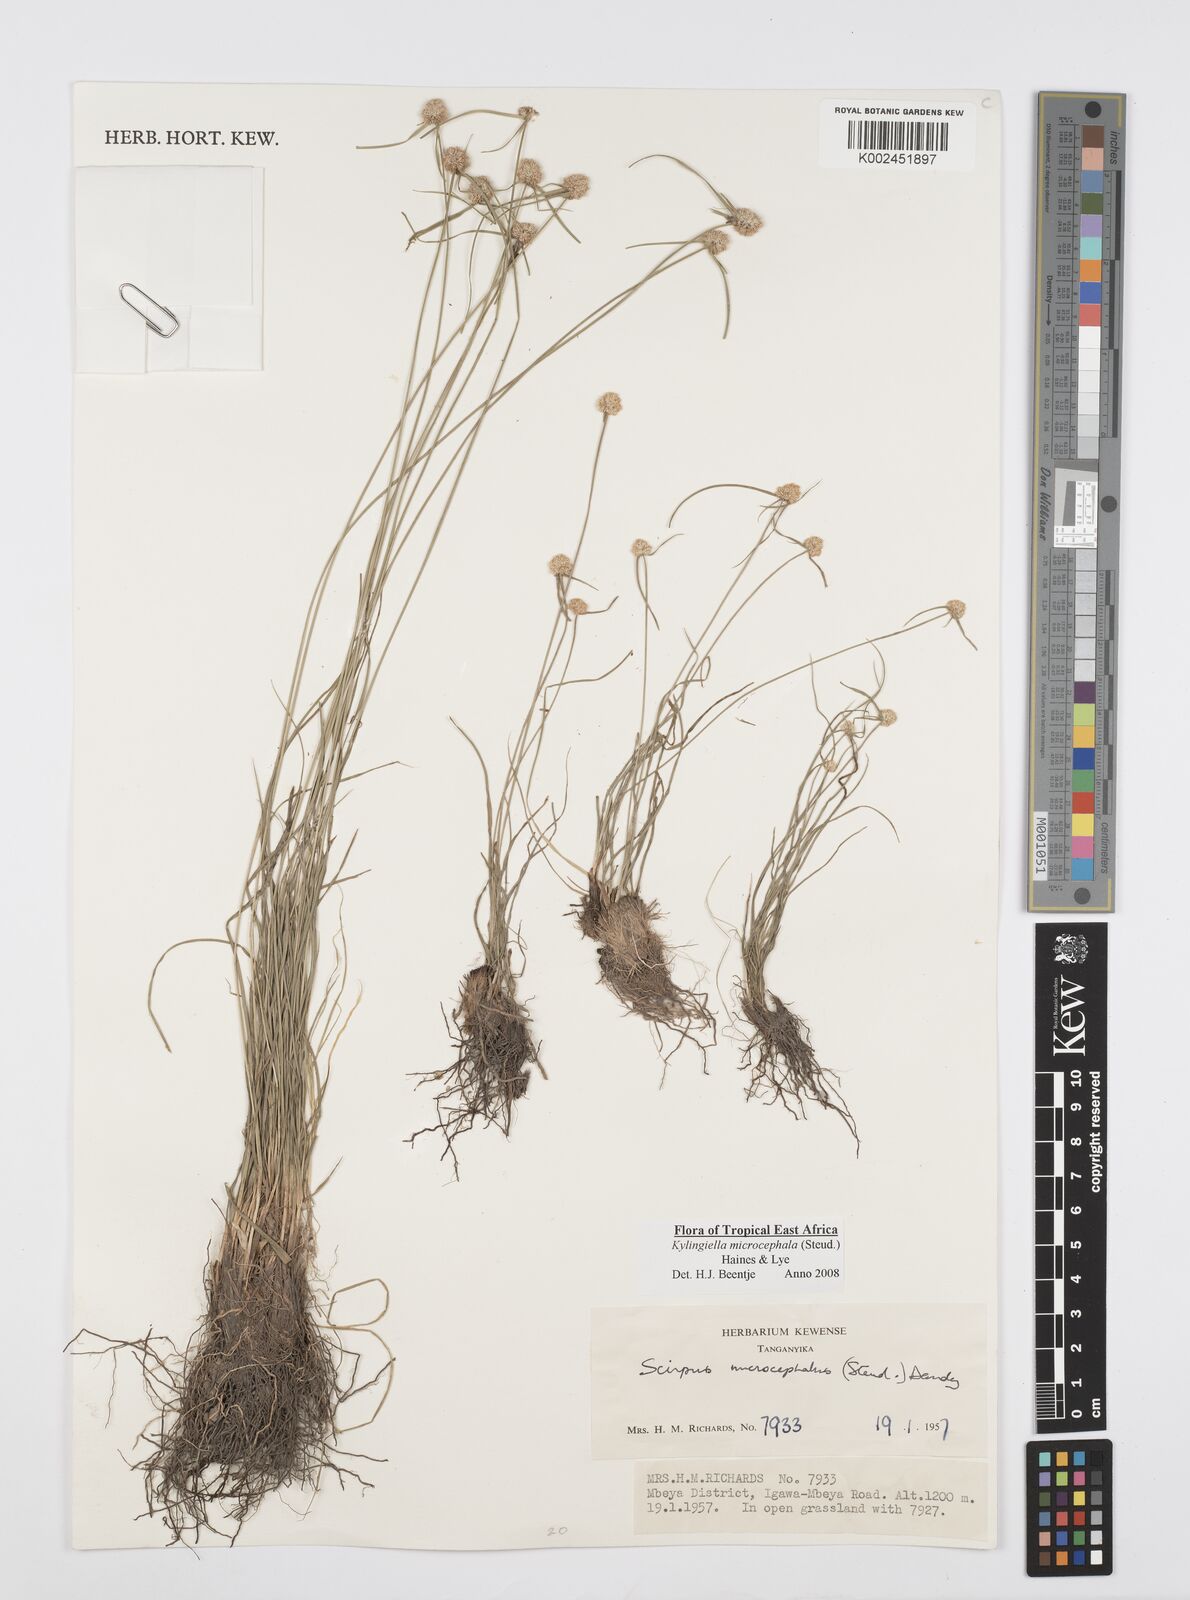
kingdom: Plantae
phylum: Tracheophyta
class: Liliopsida
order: Poales
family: Cyperaceae
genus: Cyperus
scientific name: Cyperus microcephalus
